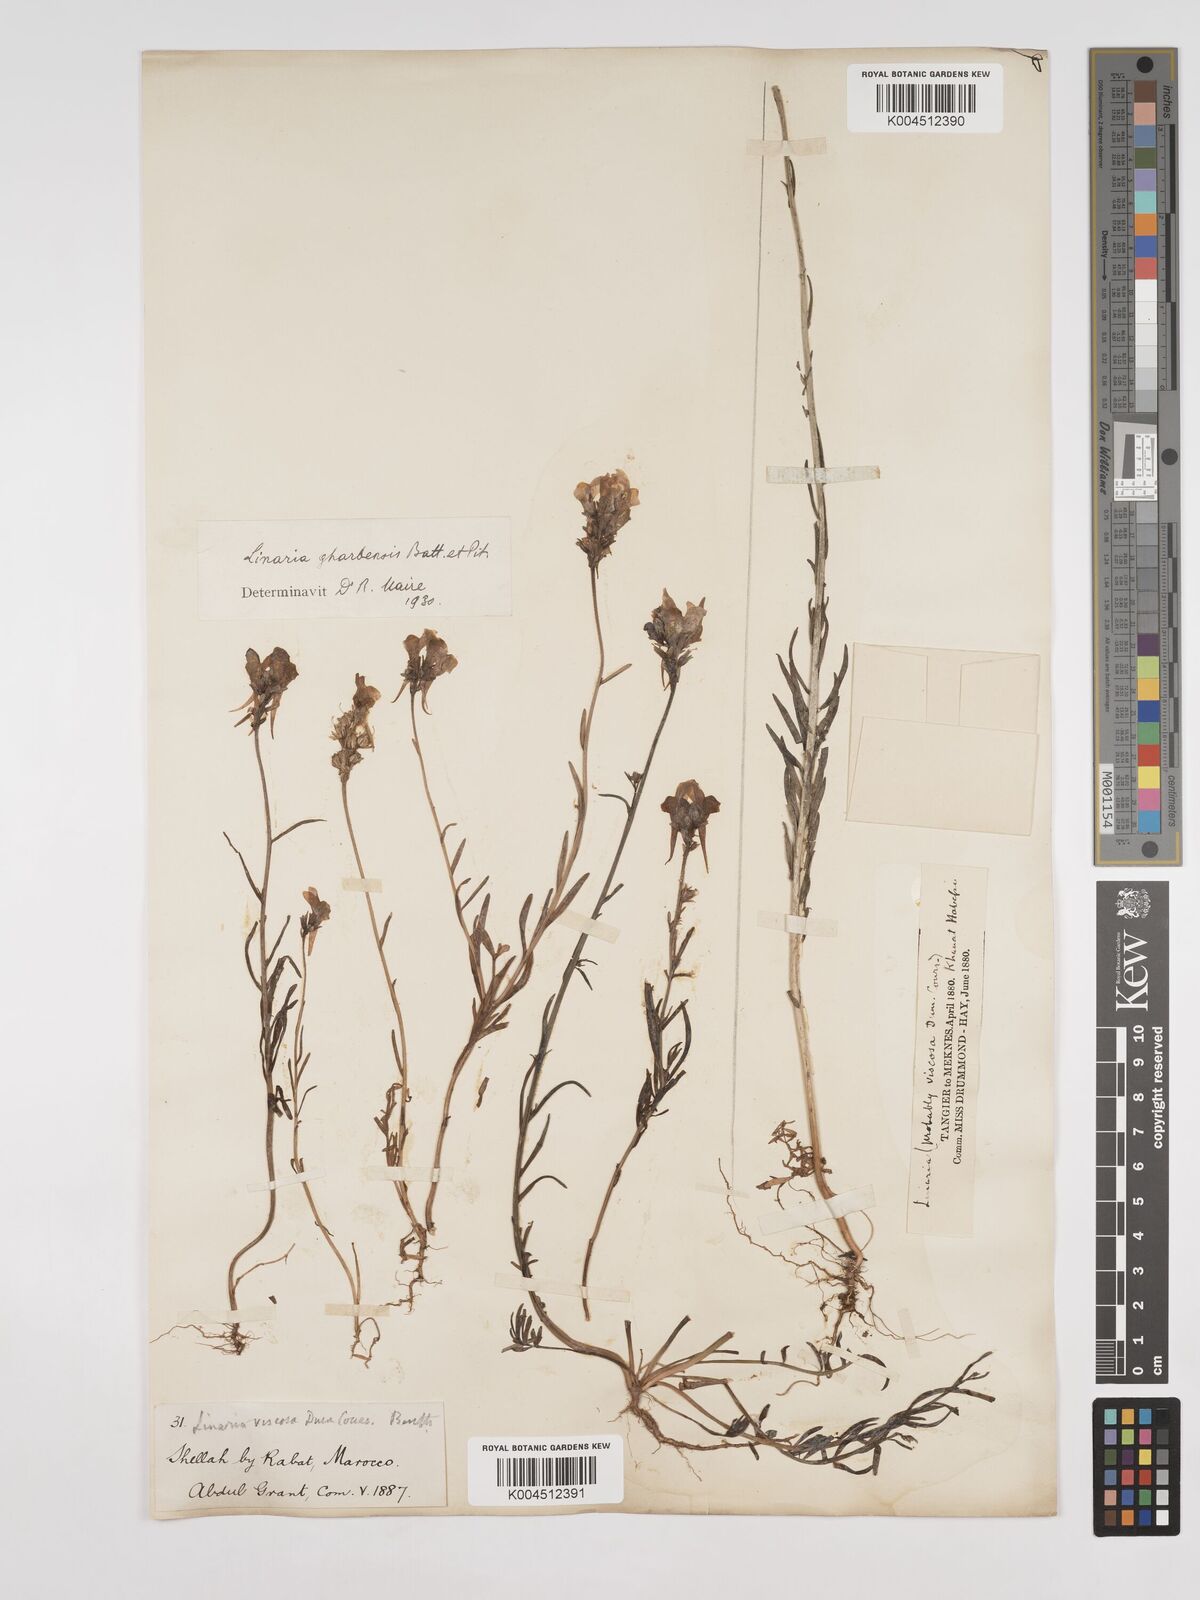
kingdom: Plantae
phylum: Tracheophyta
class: Magnoliopsida
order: Lamiales
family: Plantaginaceae
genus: Linaria
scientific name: Linaria gharbensis
